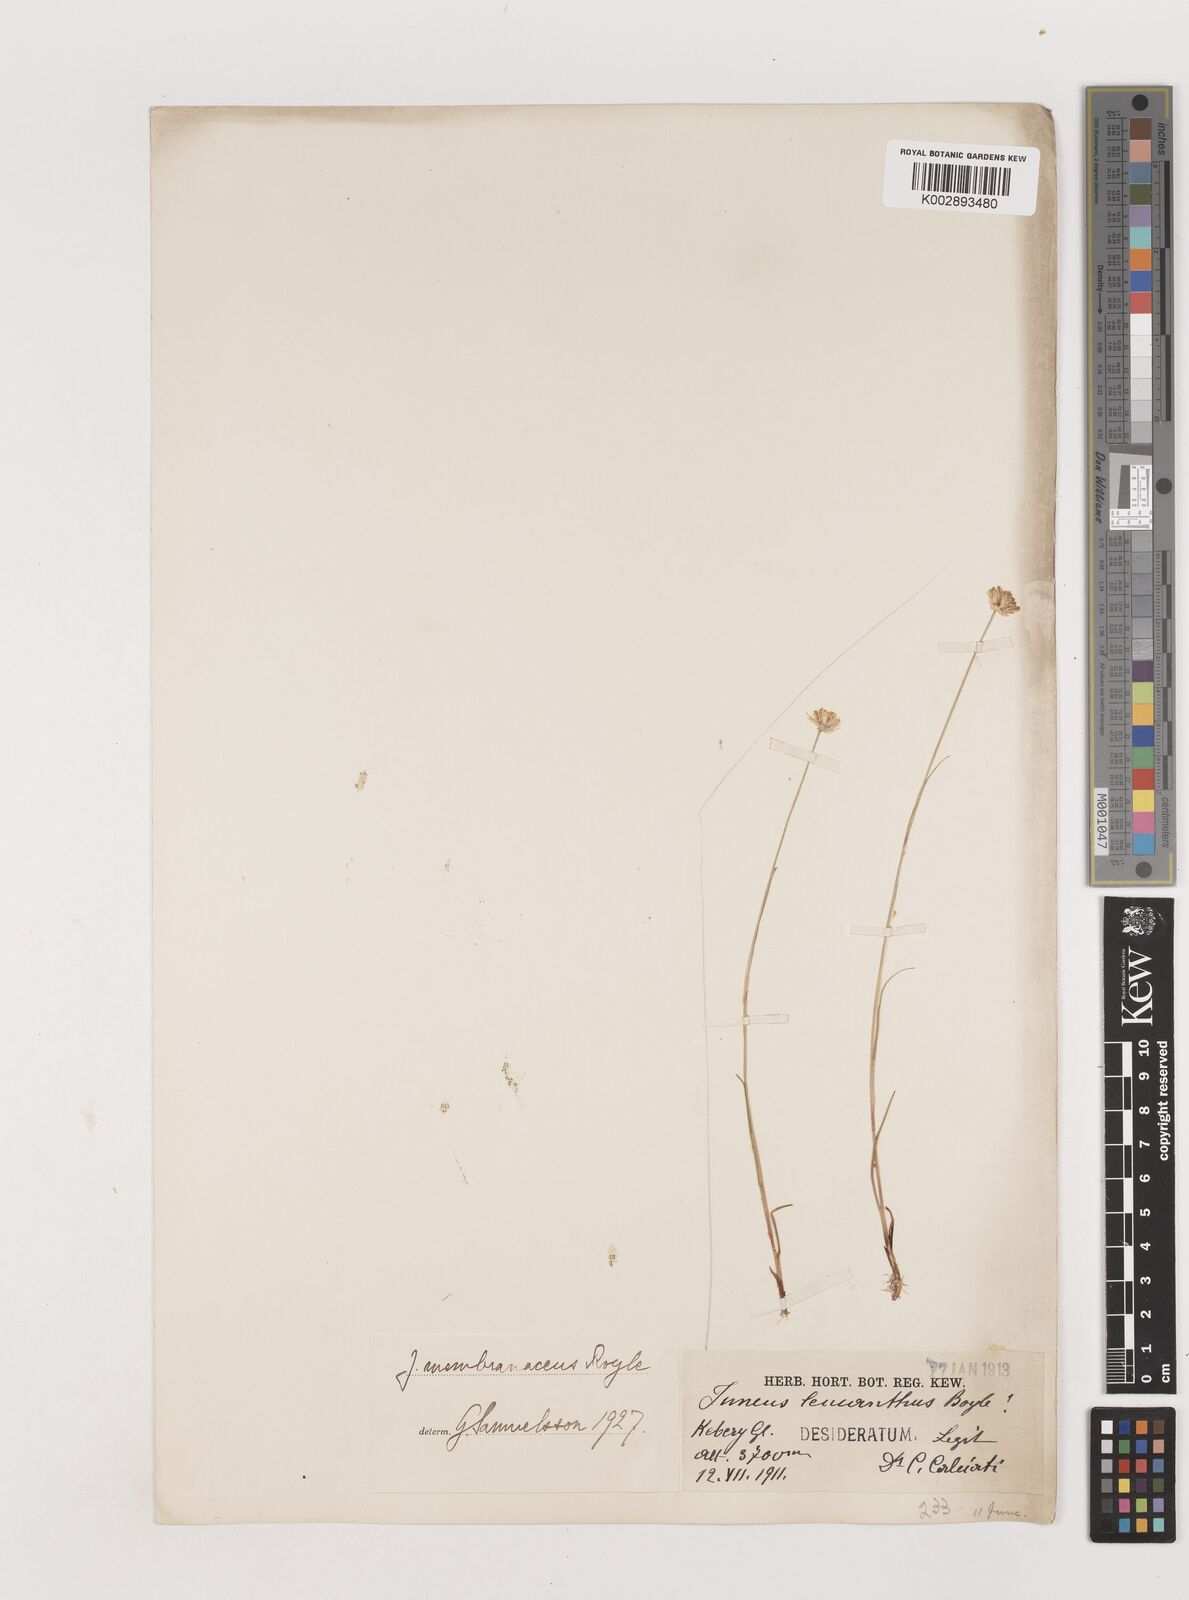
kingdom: Plantae
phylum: Tracheophyta
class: Liliopsida
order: Poales
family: Juncaceae
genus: Juncus
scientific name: Juncus membranaceus
